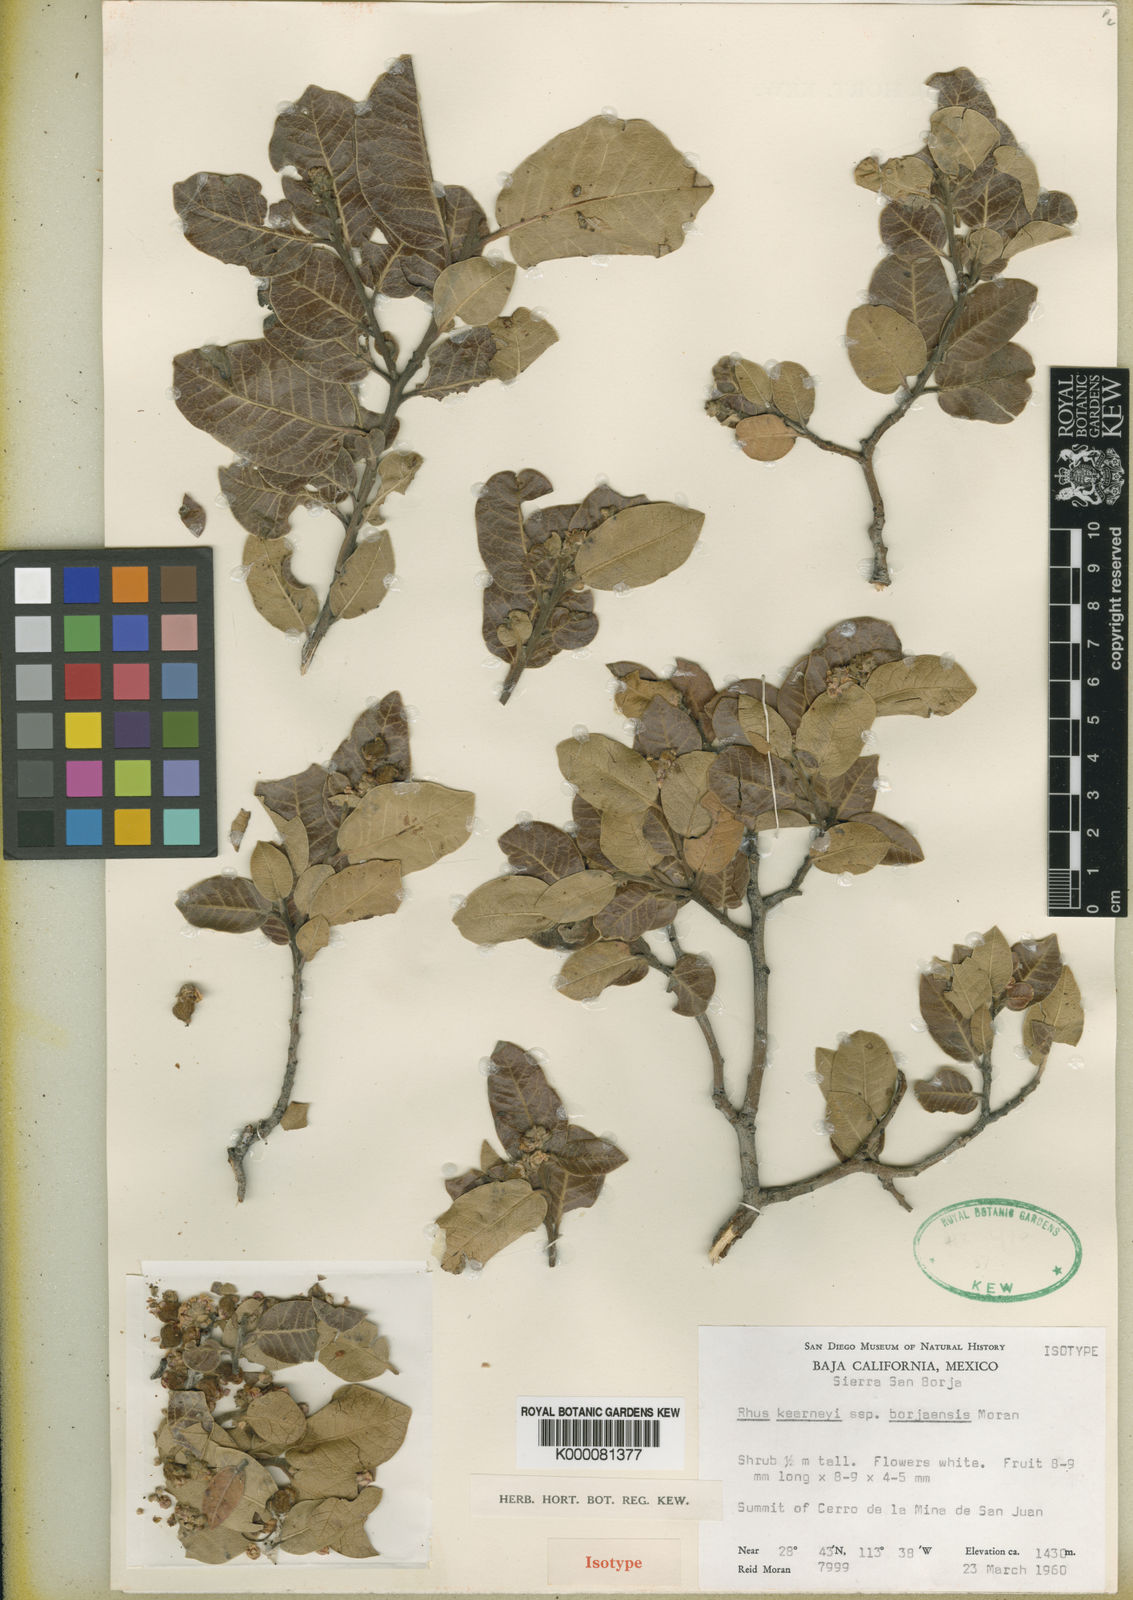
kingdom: Plantae
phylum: Tracheophyta
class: Magnoliopsida
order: Sapindales
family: Anacardiaceae
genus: Rhus
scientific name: Rhus kearneyi
